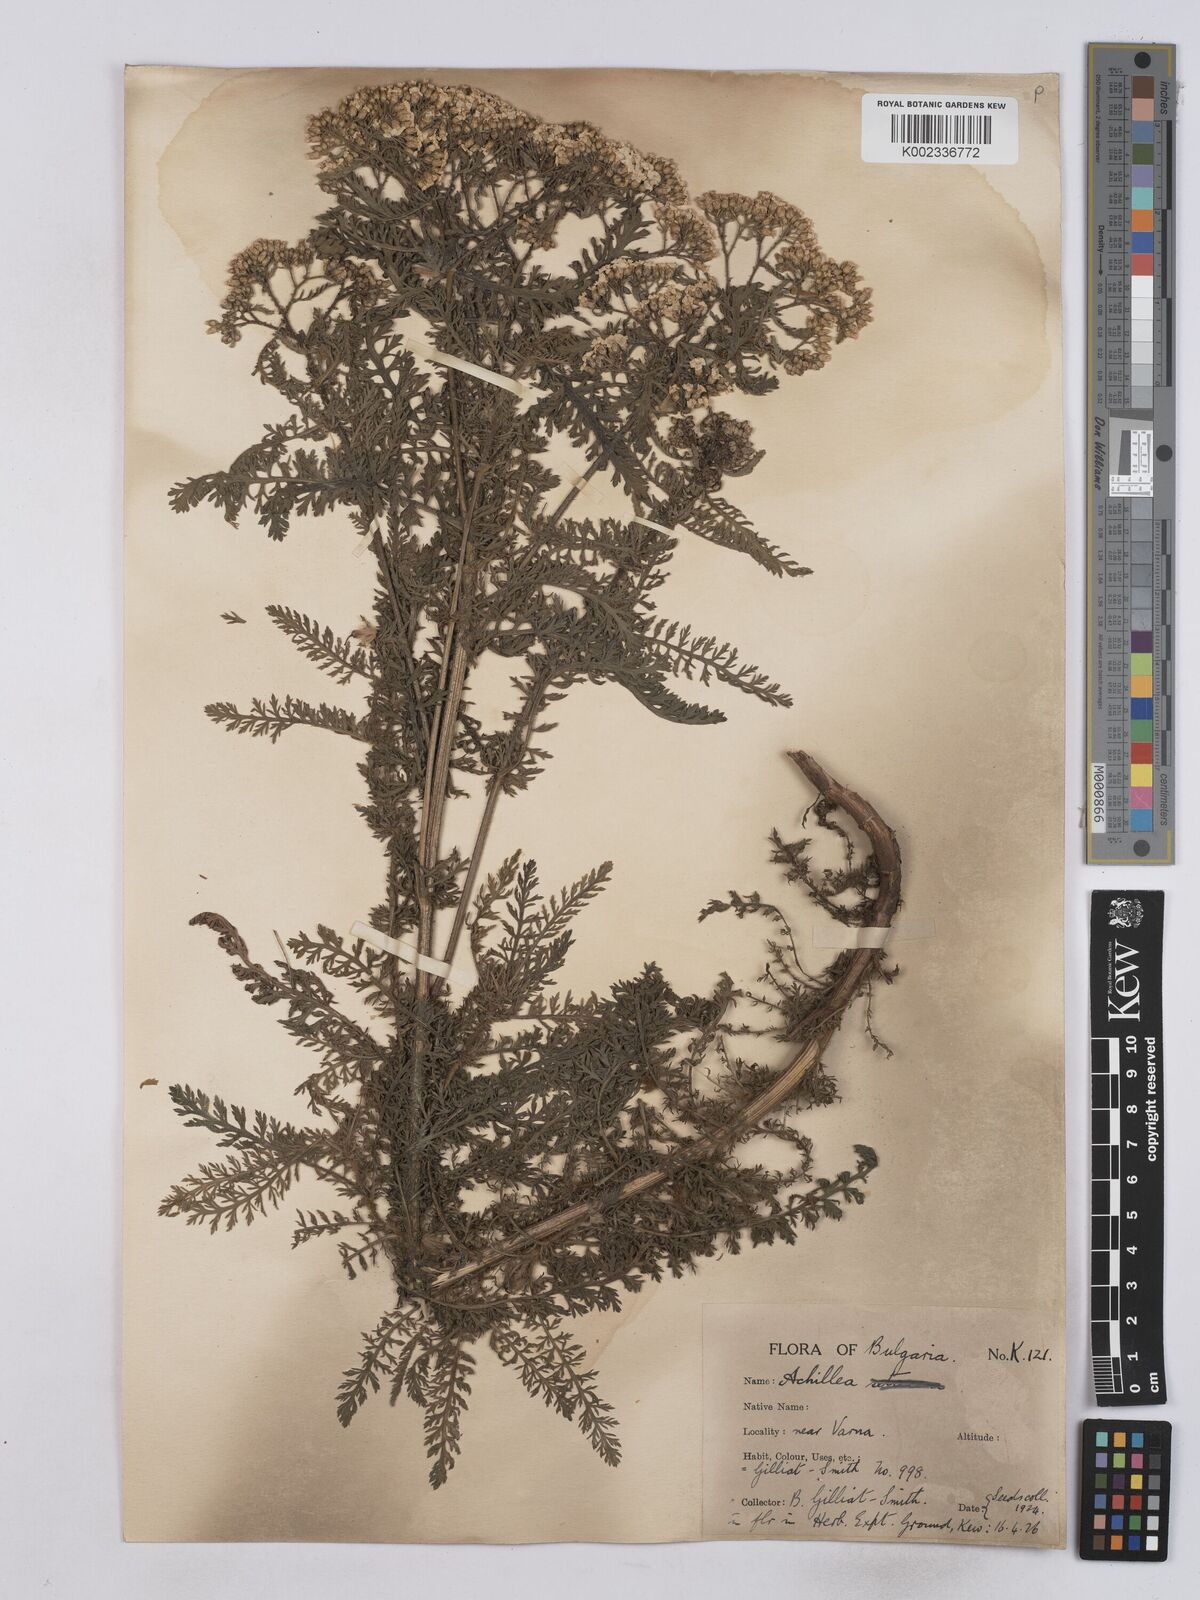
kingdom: Plantae
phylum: Tracheophyta
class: Magnoliopsida
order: Asterales
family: Asteraceae
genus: Achillea
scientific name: Achillea crithmifolia
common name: Yarrow
